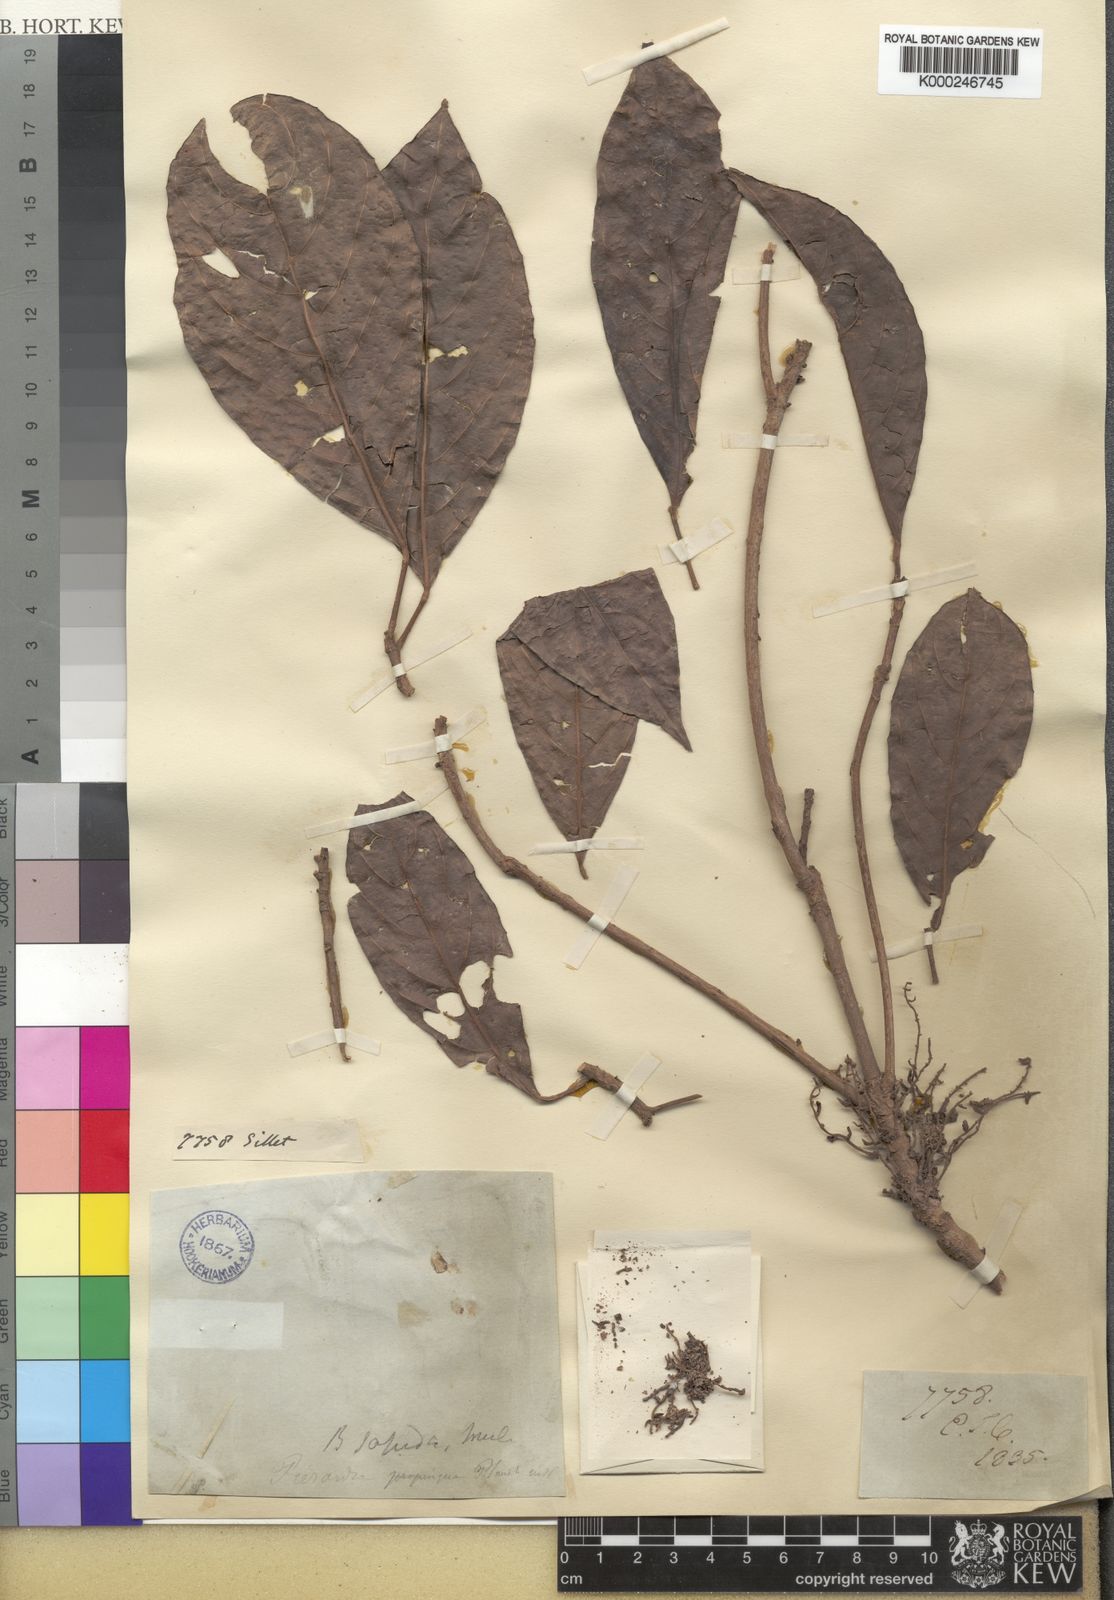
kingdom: Plantae
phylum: Tracheophyta
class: Magnoliopsida
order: Malpighiales
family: Phyllanthaceae
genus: Baccaurea
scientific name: Baccaurea ramiflora
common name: Baccaurea
